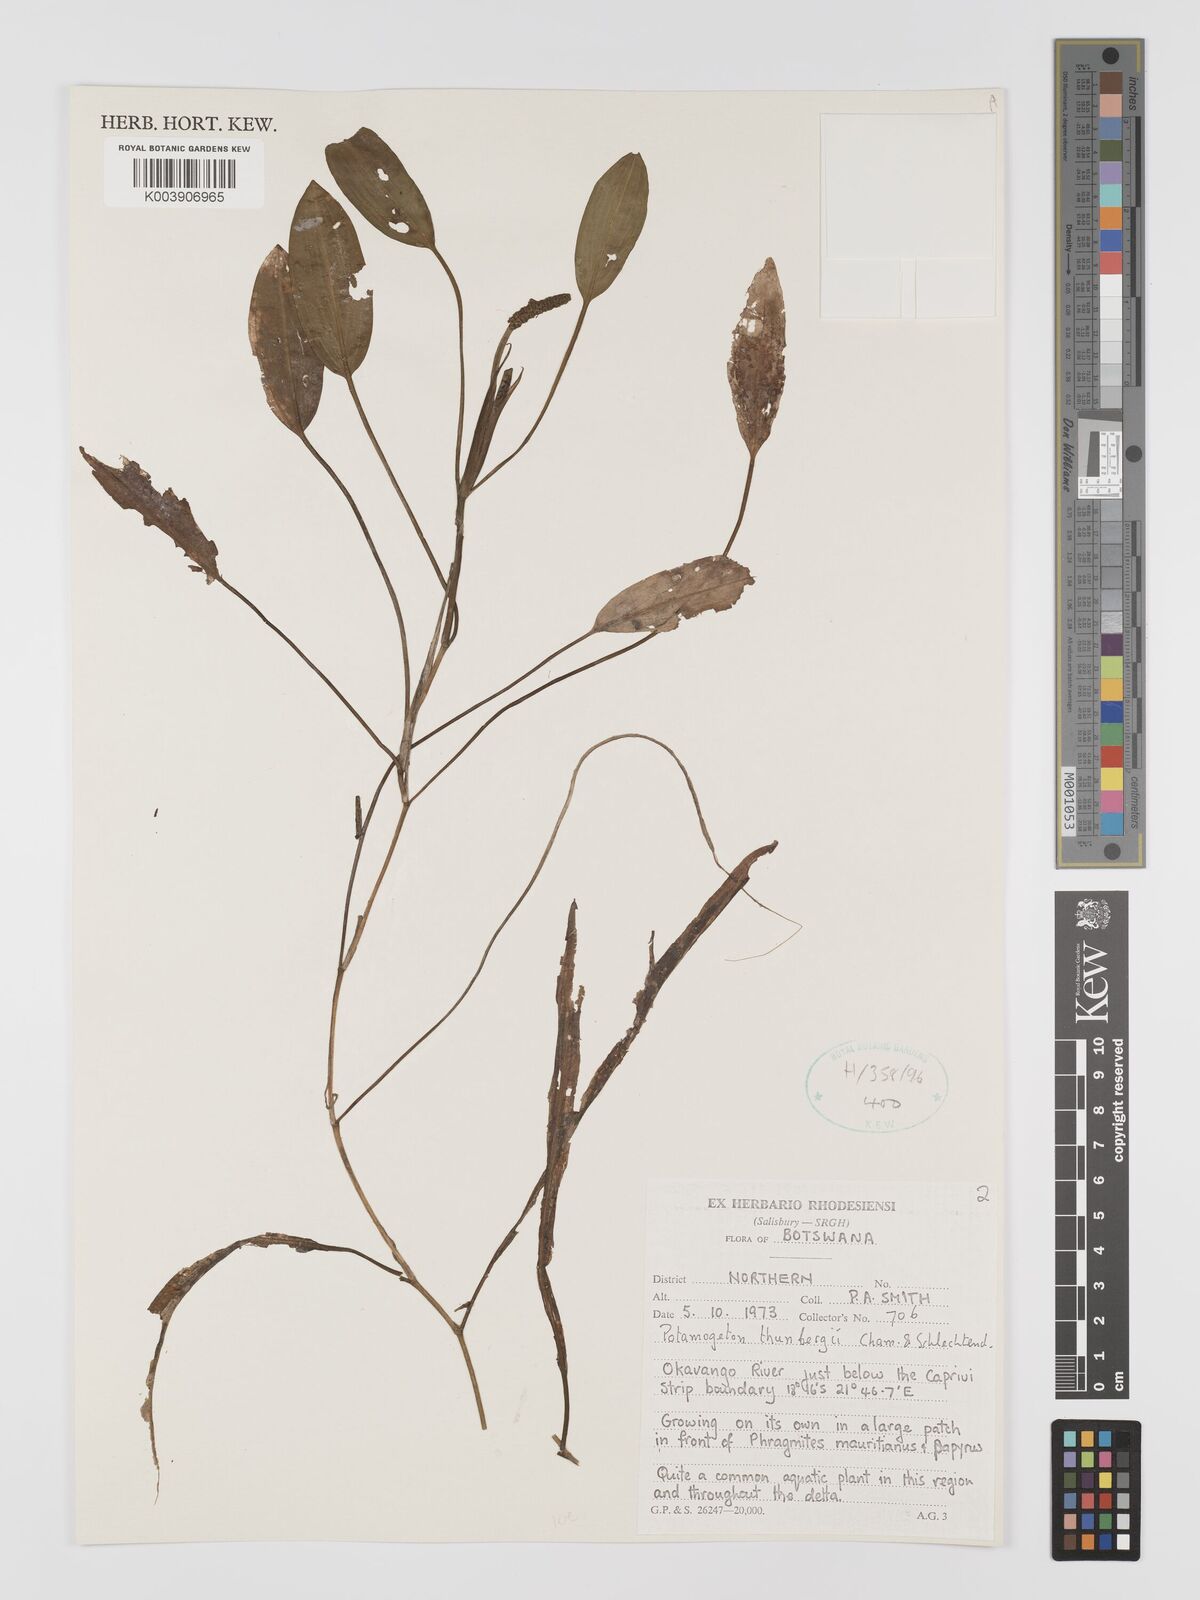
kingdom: Plantae
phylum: Tracheophyta
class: Liliopsida
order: Alismatales
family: Potamogetonaceae
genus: Potamogeton
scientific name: Potamogeton nodosus
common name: Loddon pondweed
